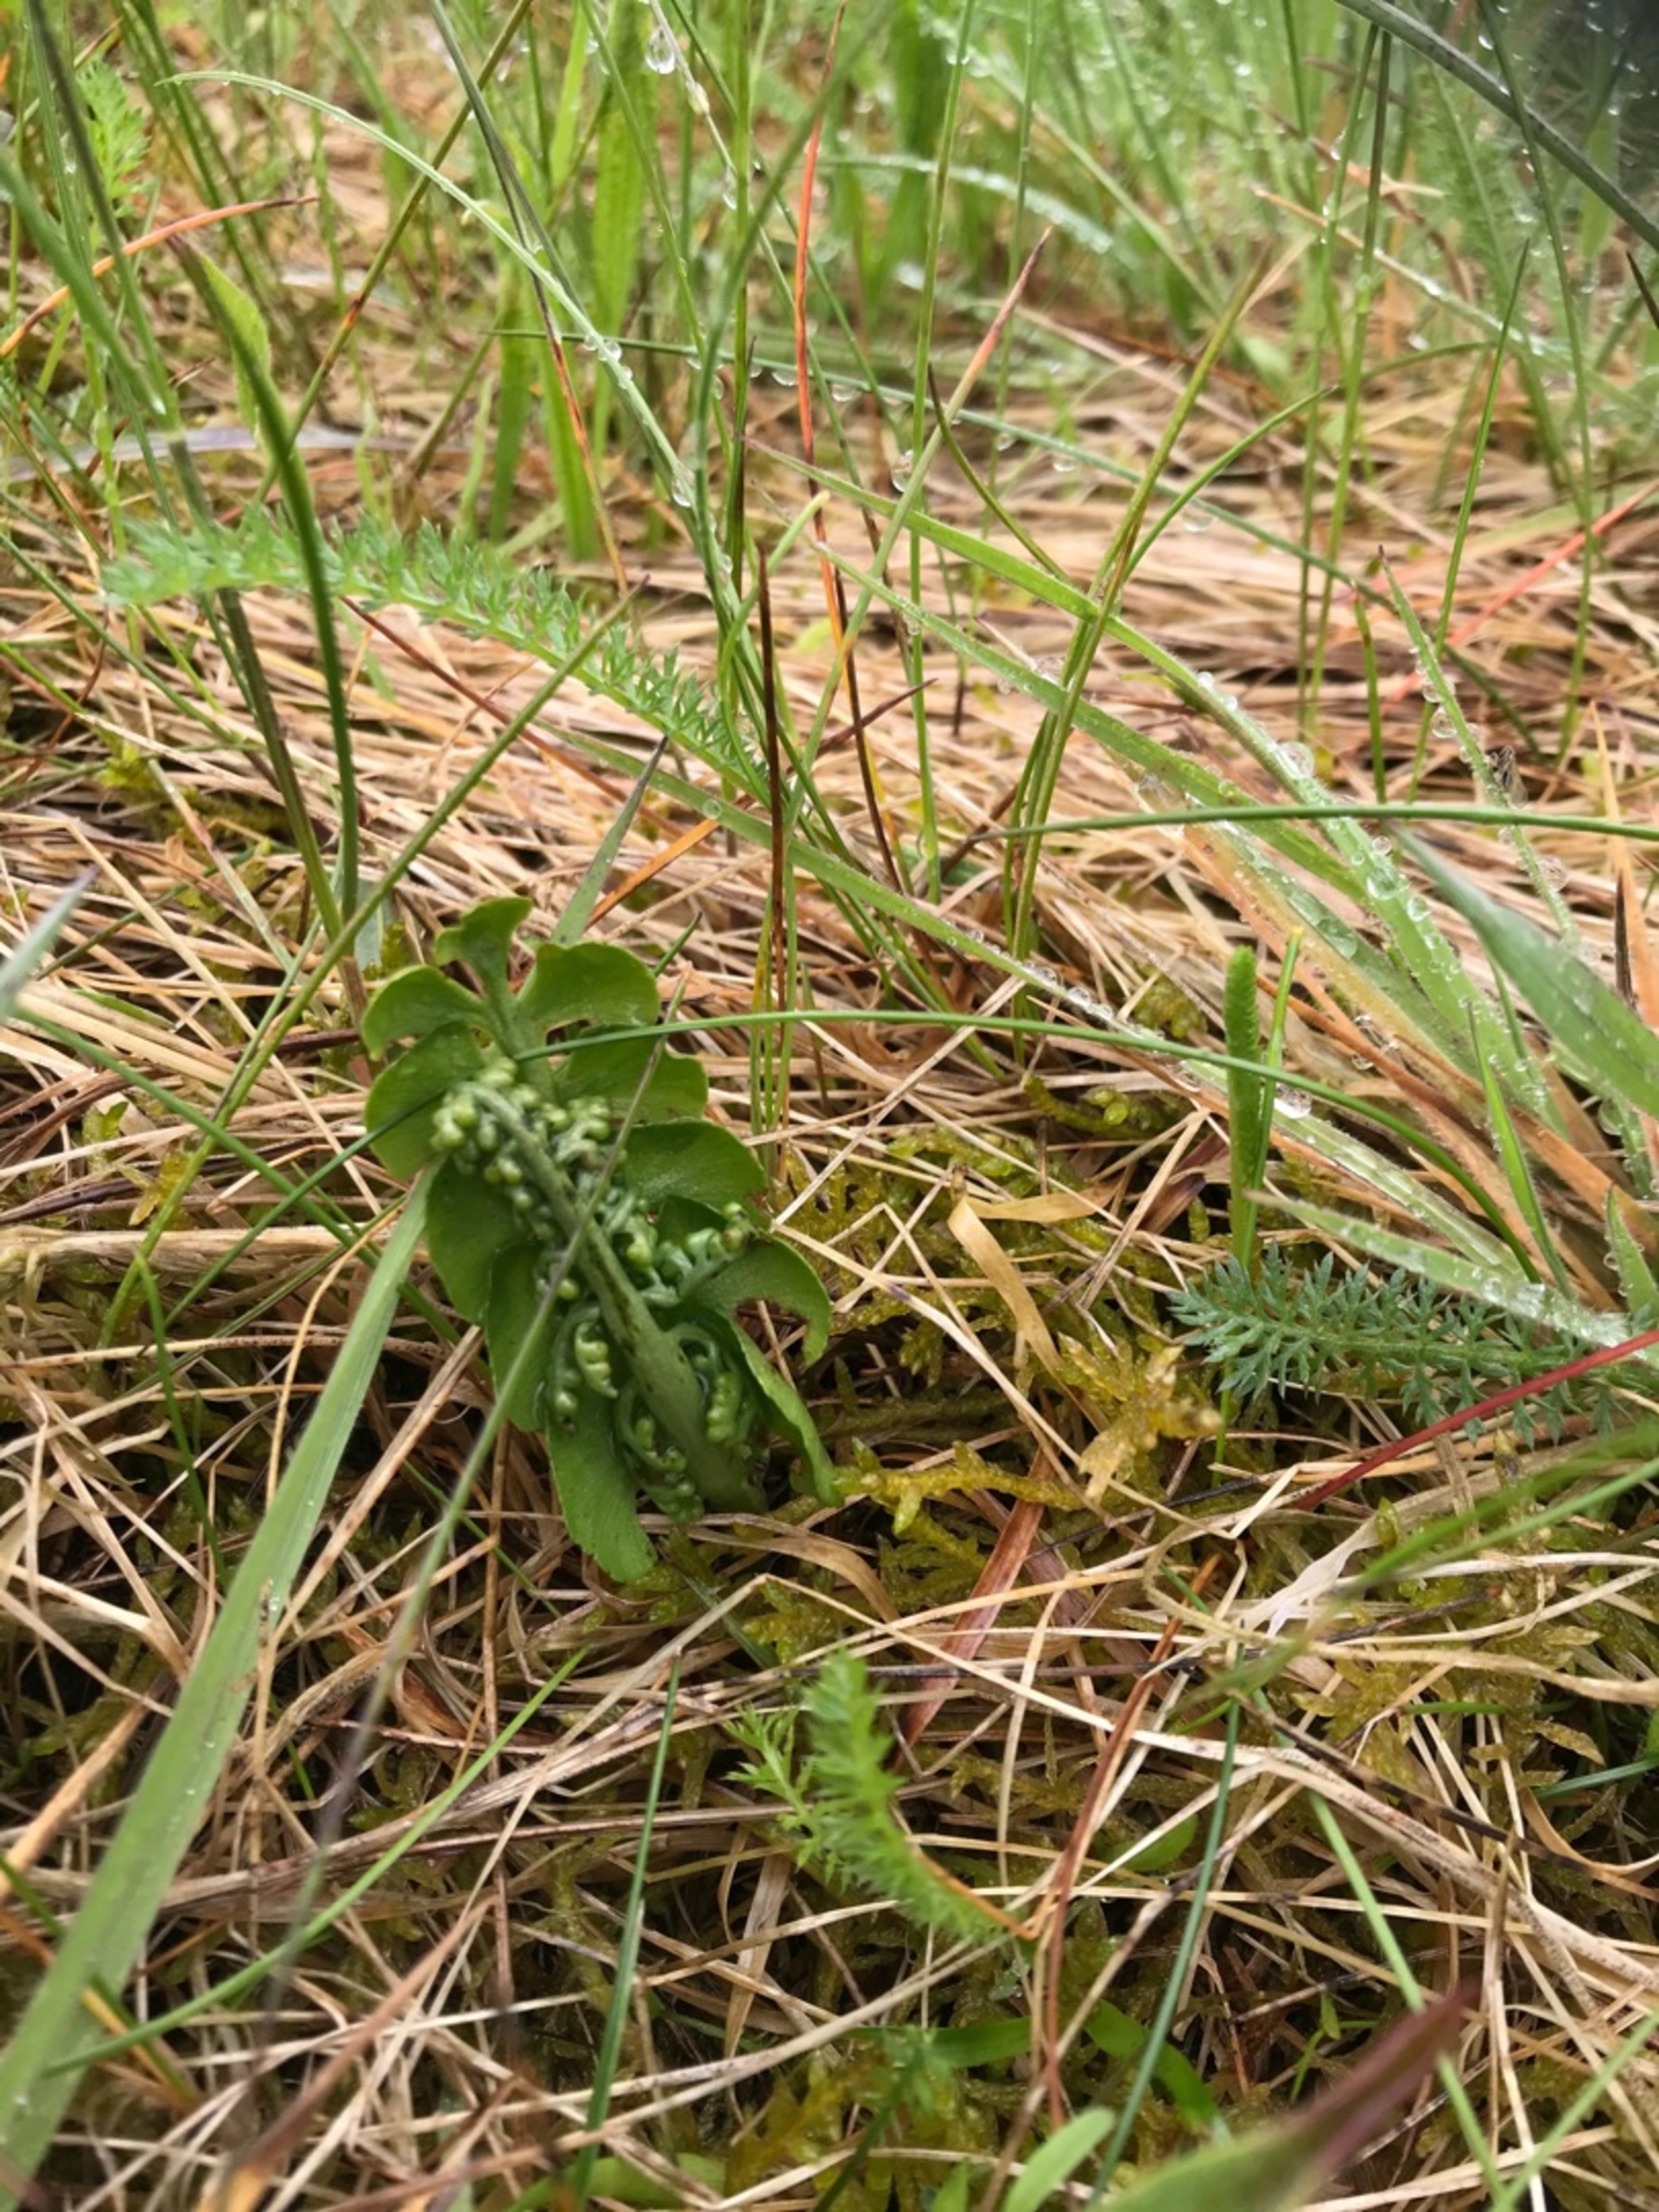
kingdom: Plantae
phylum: Tracheophyta
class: Polypodiopsida
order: Ophioglossales
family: Ophioglossaceae
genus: Botrychium
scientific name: Botrychium lunaria
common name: Almindelig månerude
